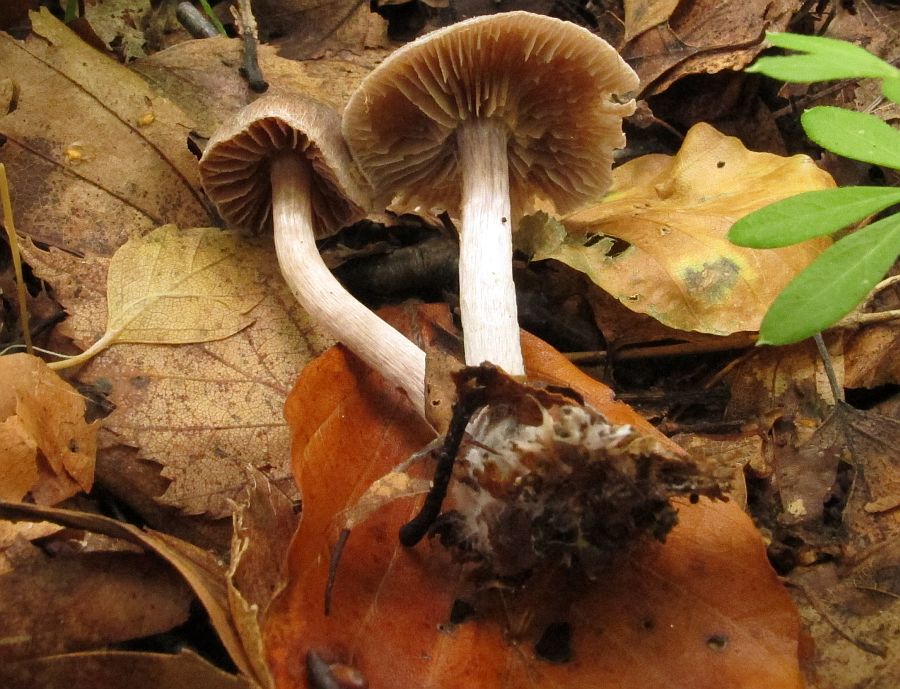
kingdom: Fungi
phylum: Basidiomycota
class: Agaricomycetes
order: Agaricales
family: Cortinariaceae
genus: Cortinarius
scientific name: Cortinarius hemitrichus
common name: hvidfnugget slørhat
